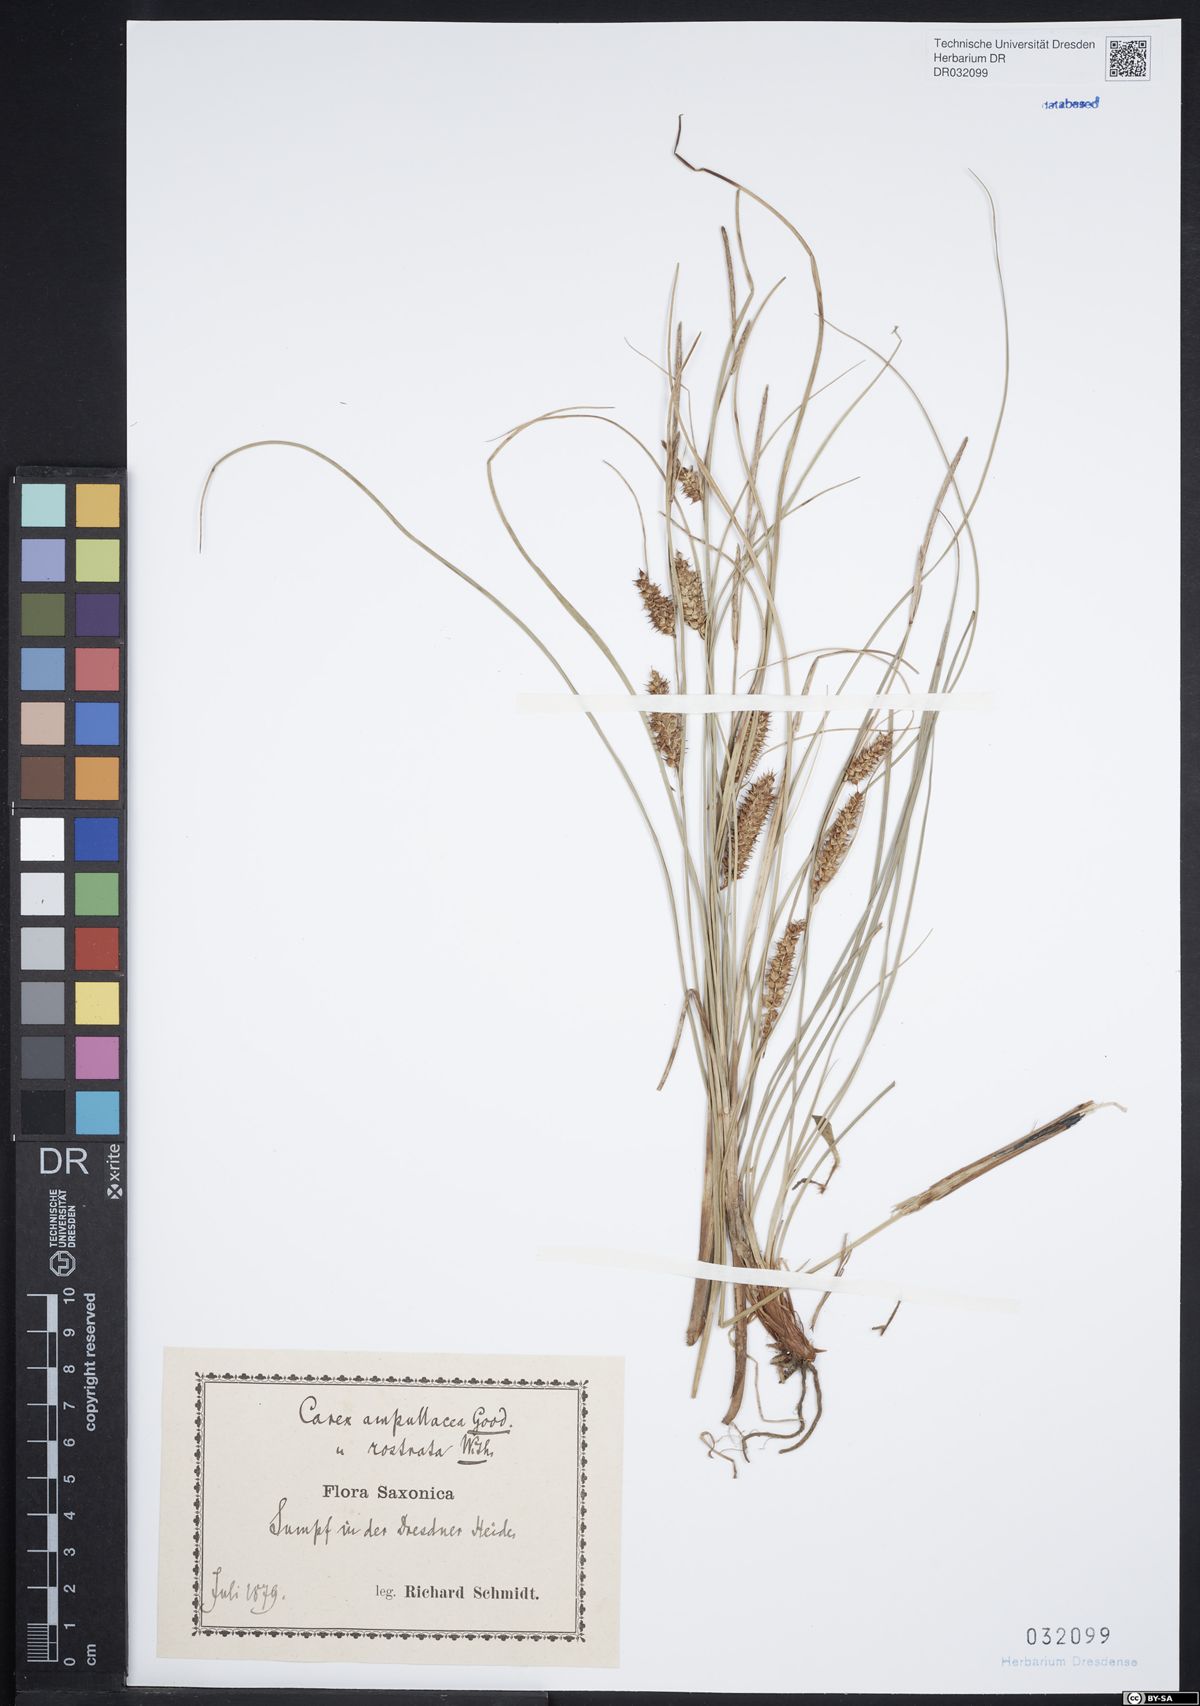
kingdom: Plantae
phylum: Tracheophyta
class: Liliopsida
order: Poales
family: Cyperaceae
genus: Carex
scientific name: Carex rostrata
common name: Bottle sedge
